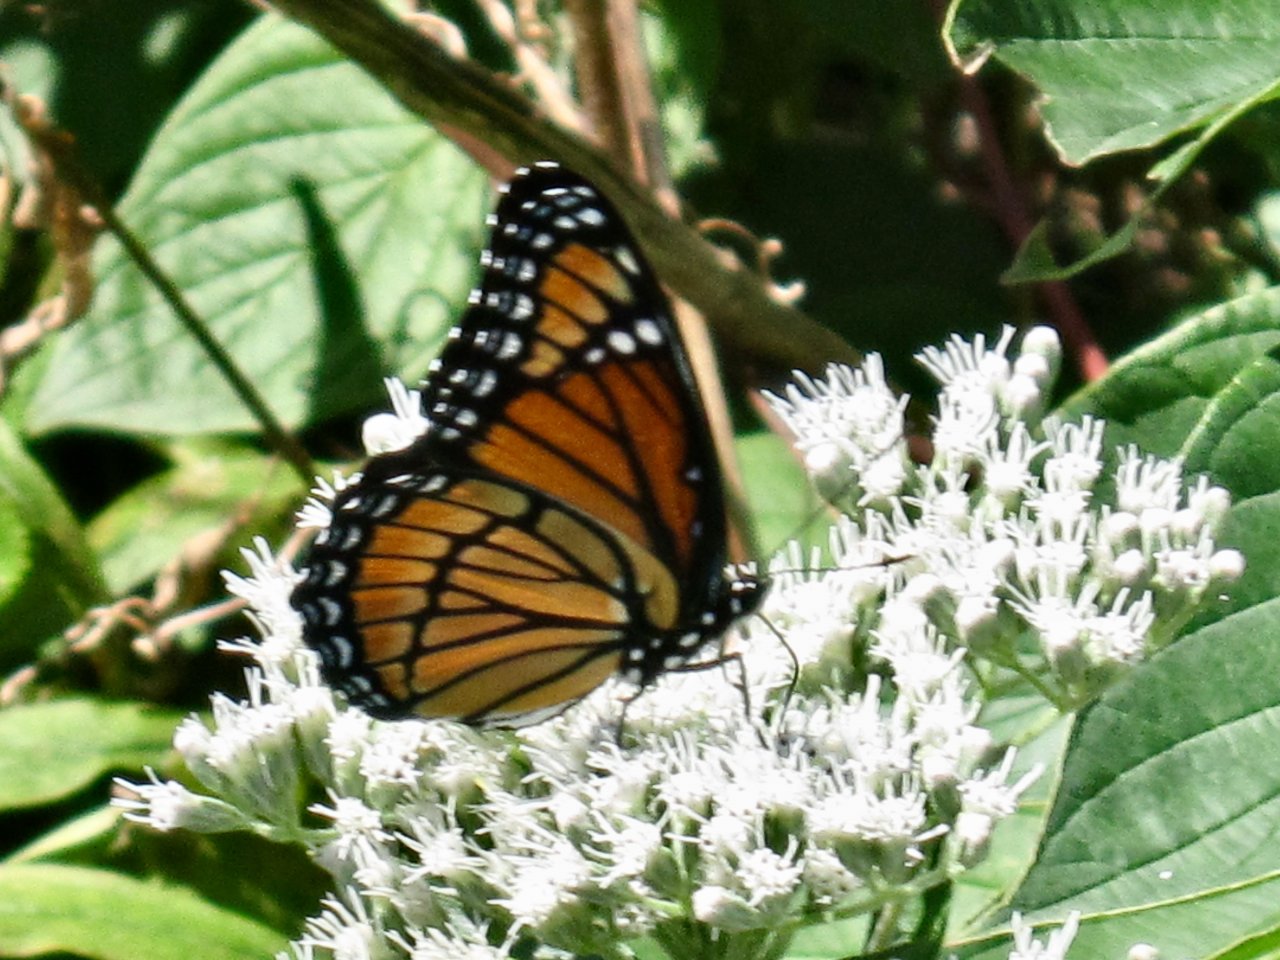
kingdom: Animalia
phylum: Arthropoda
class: Insecta
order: Lepidoptera
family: Nymphalidae
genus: Limenitis
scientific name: Limenitis archippus
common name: Viceroy
